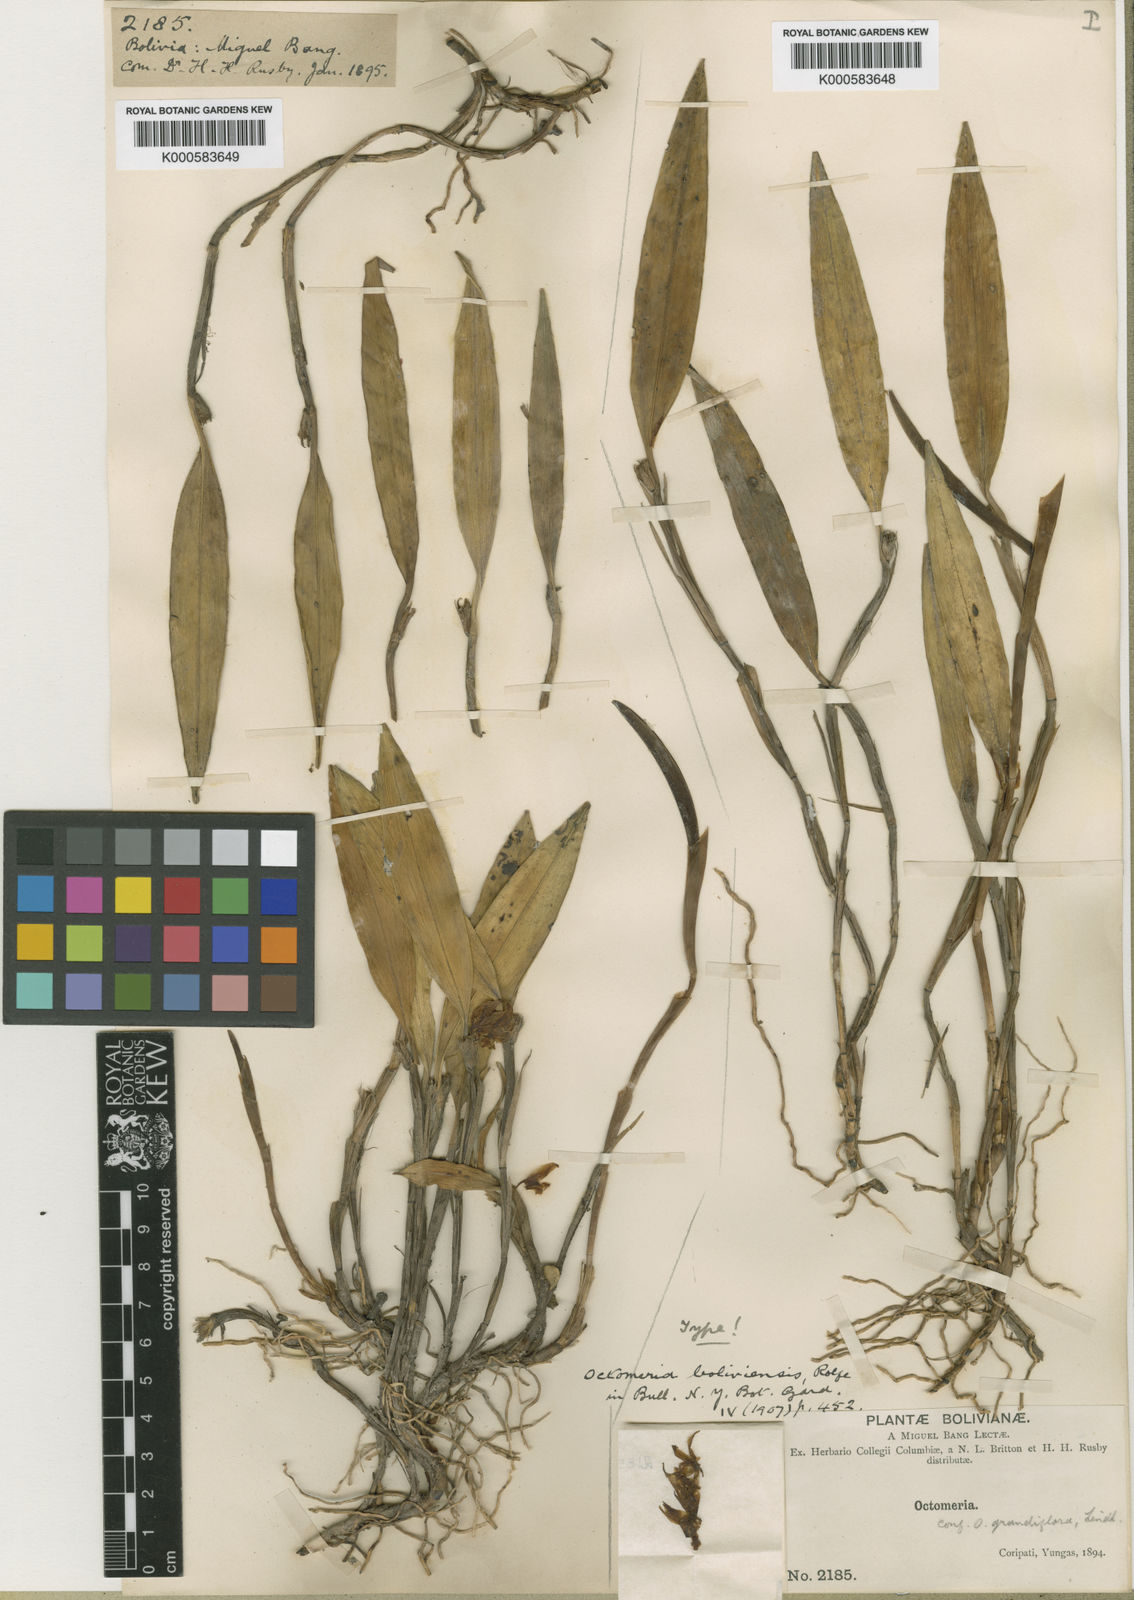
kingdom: Plantae
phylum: Tracheophyta
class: Liliopsida
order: Asparagales
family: Orchidaceae
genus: Octomeria
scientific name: Octomeria grandiflora
